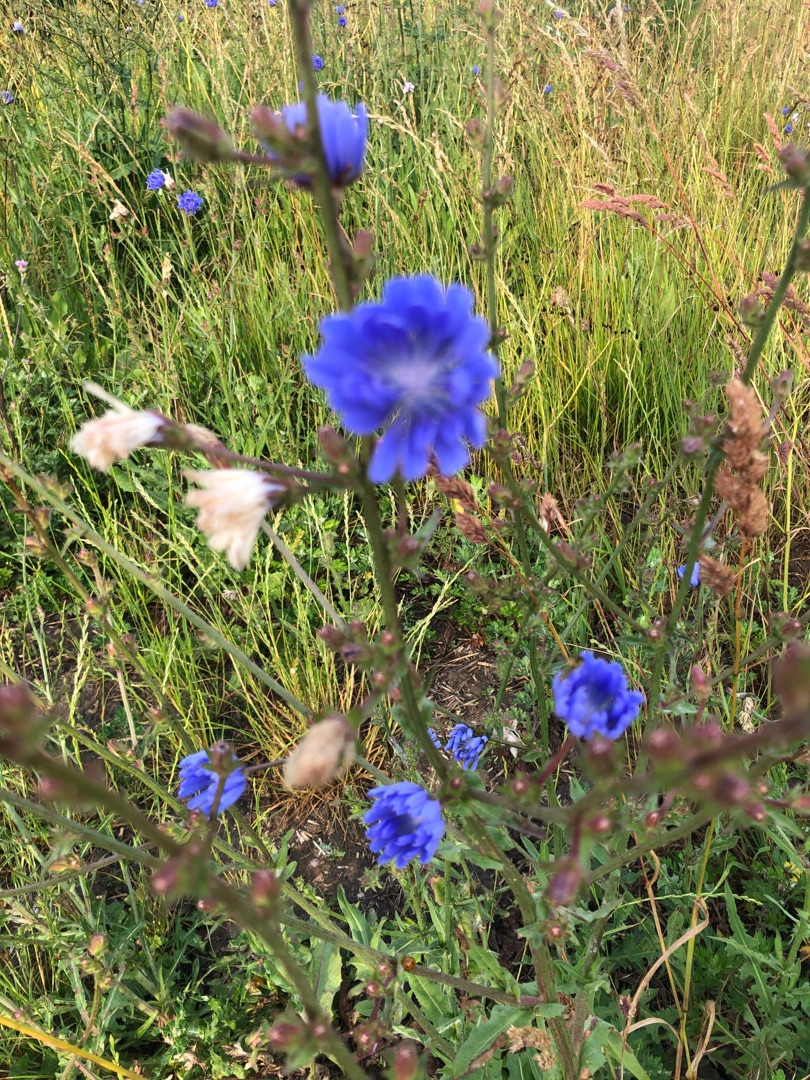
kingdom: Plantae
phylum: Tracheophyta
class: Magnoliopsida
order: Asterales
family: Asteraceae
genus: Cichorium
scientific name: Cichorium intybus
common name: Cikorie
